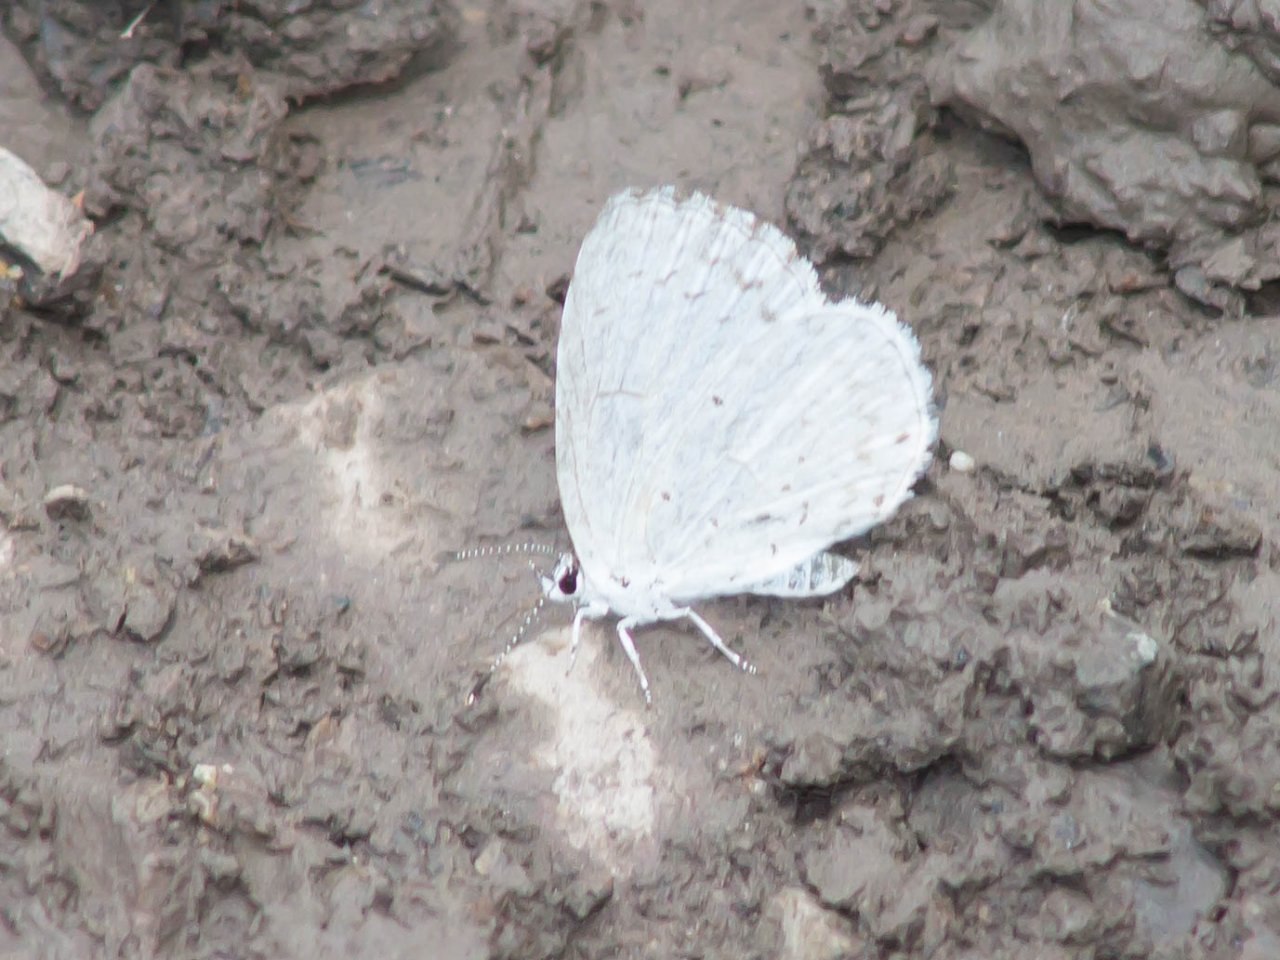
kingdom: Animalia
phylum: Arthropoda
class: Insecta
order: Lepidoptera
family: Lycaenidae
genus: Cyaniris
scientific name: Cyaniris neglecta
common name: Summer Azure
